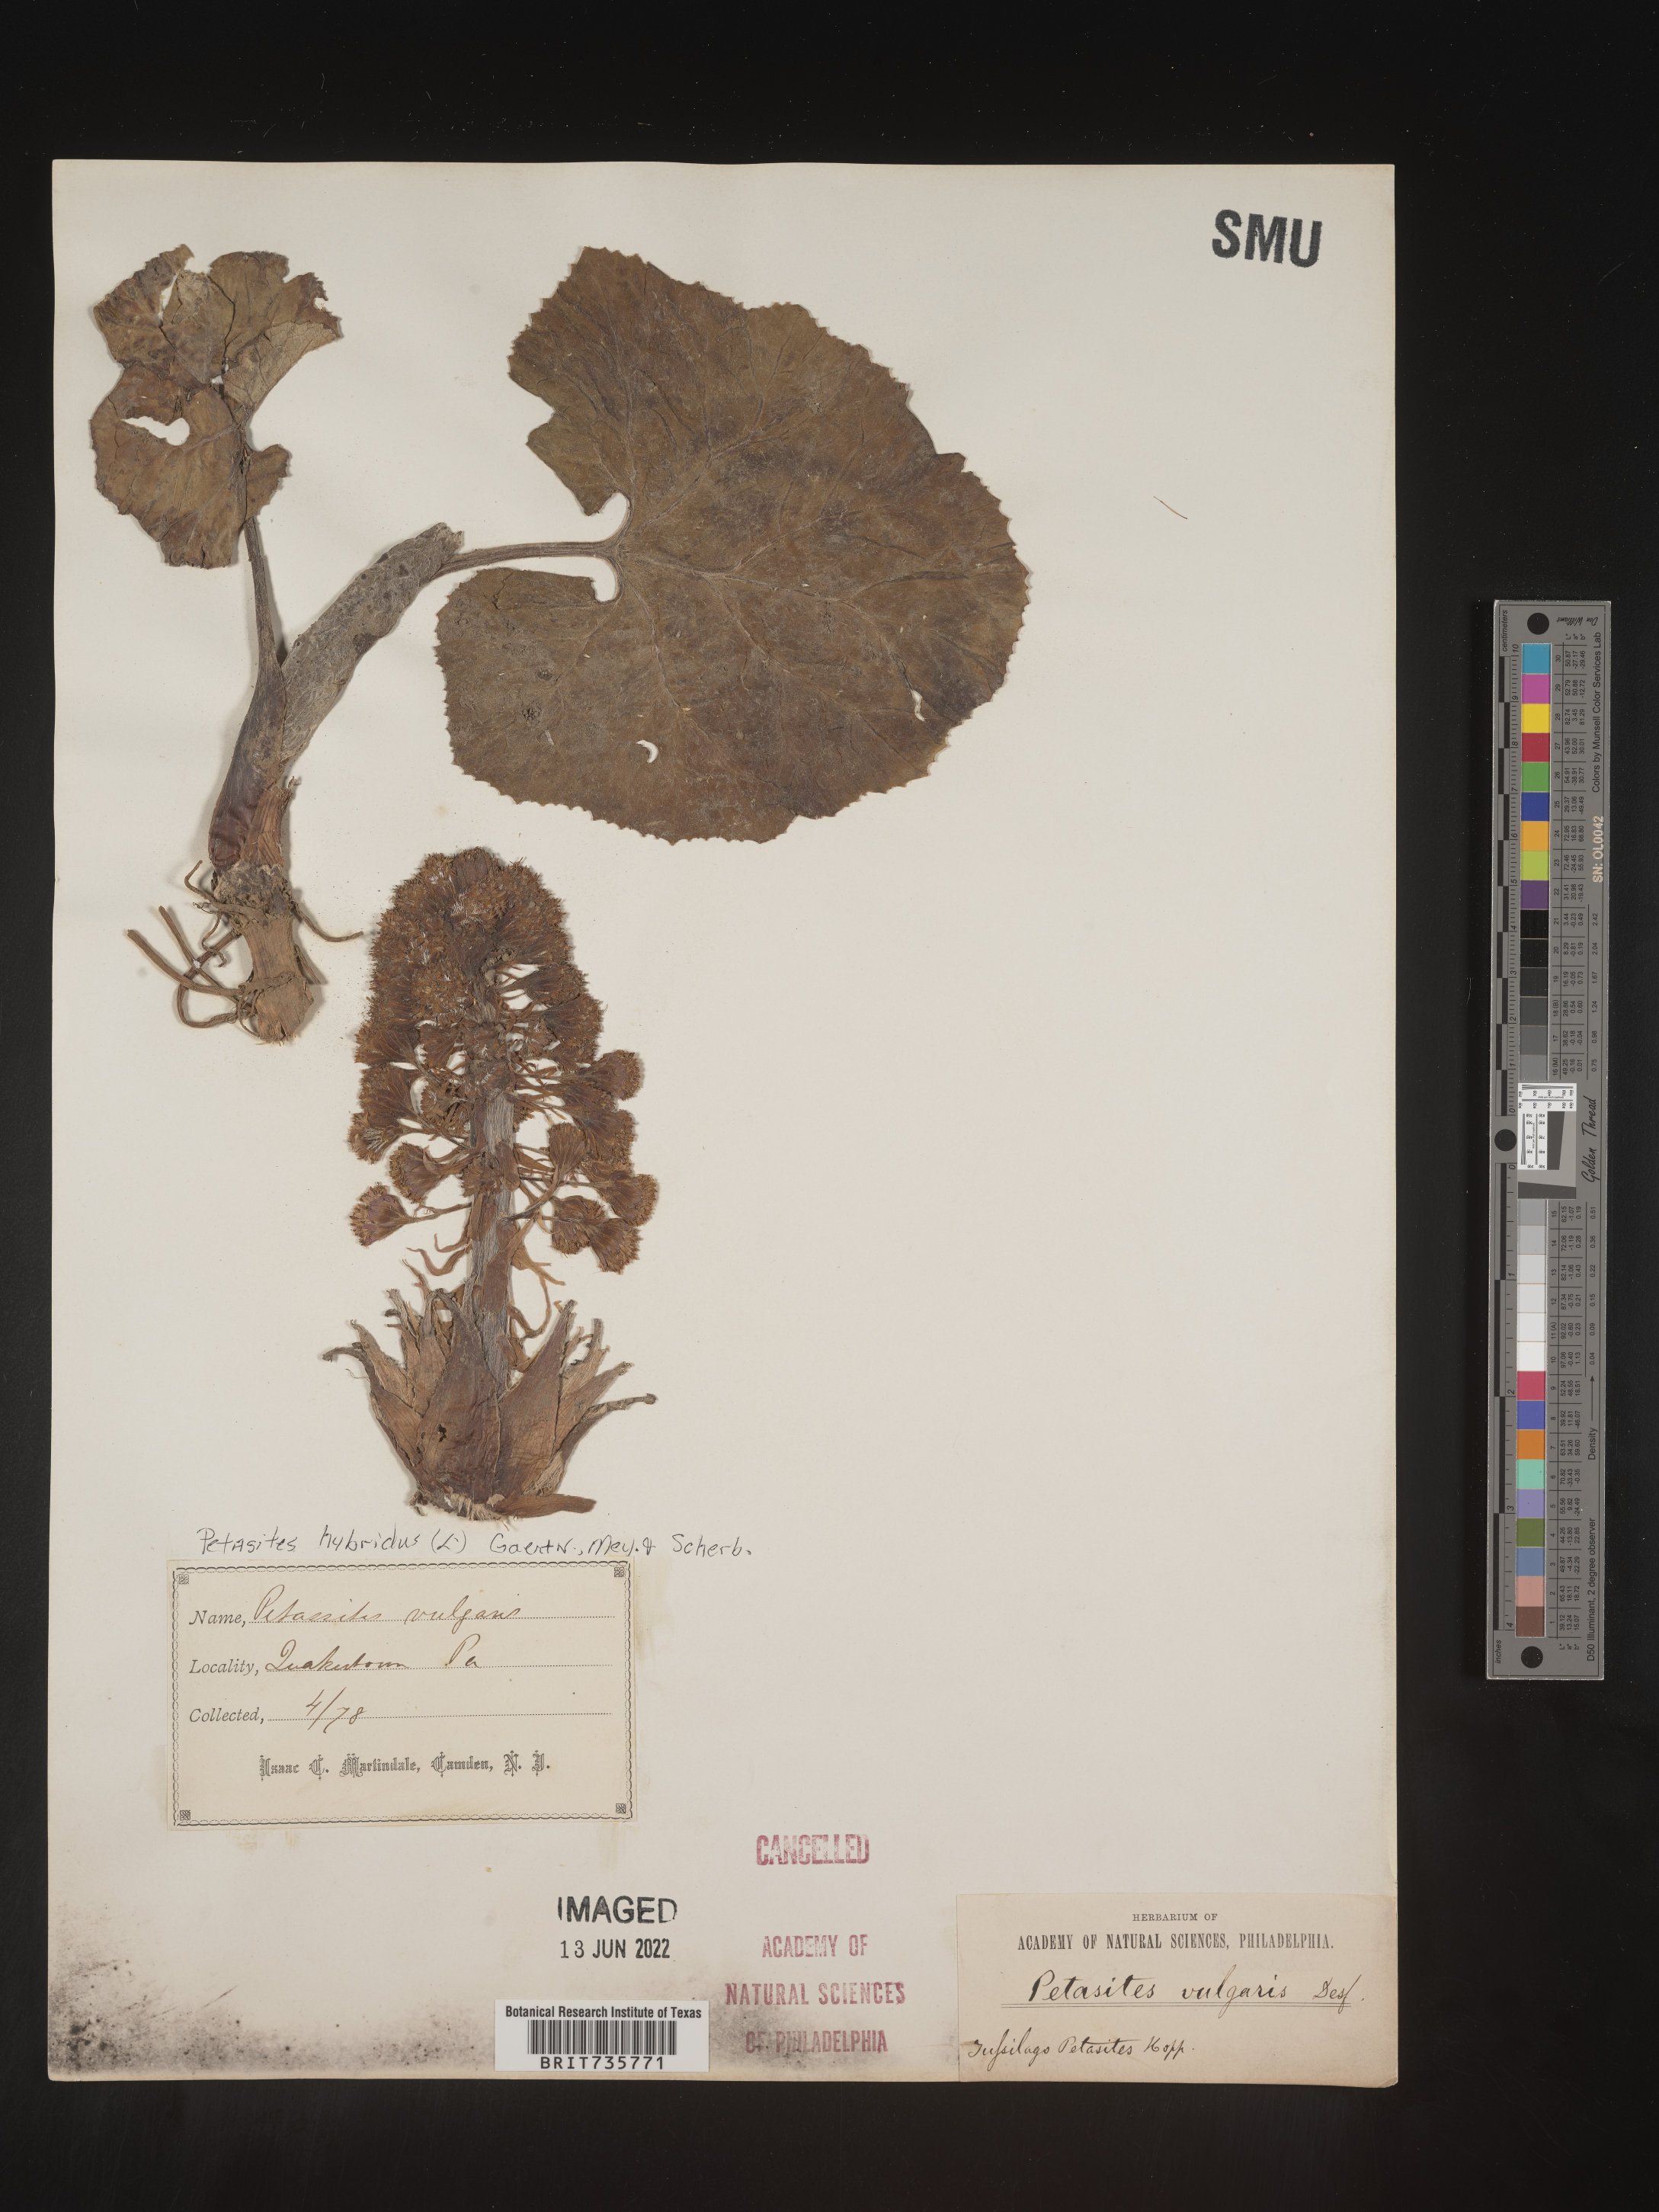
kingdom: Plantae
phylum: Tracheophyta
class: Magnoliopsida
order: Asterales
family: Asteraceae
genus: Petasites
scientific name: Petasites hybridus
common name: Butterbur
